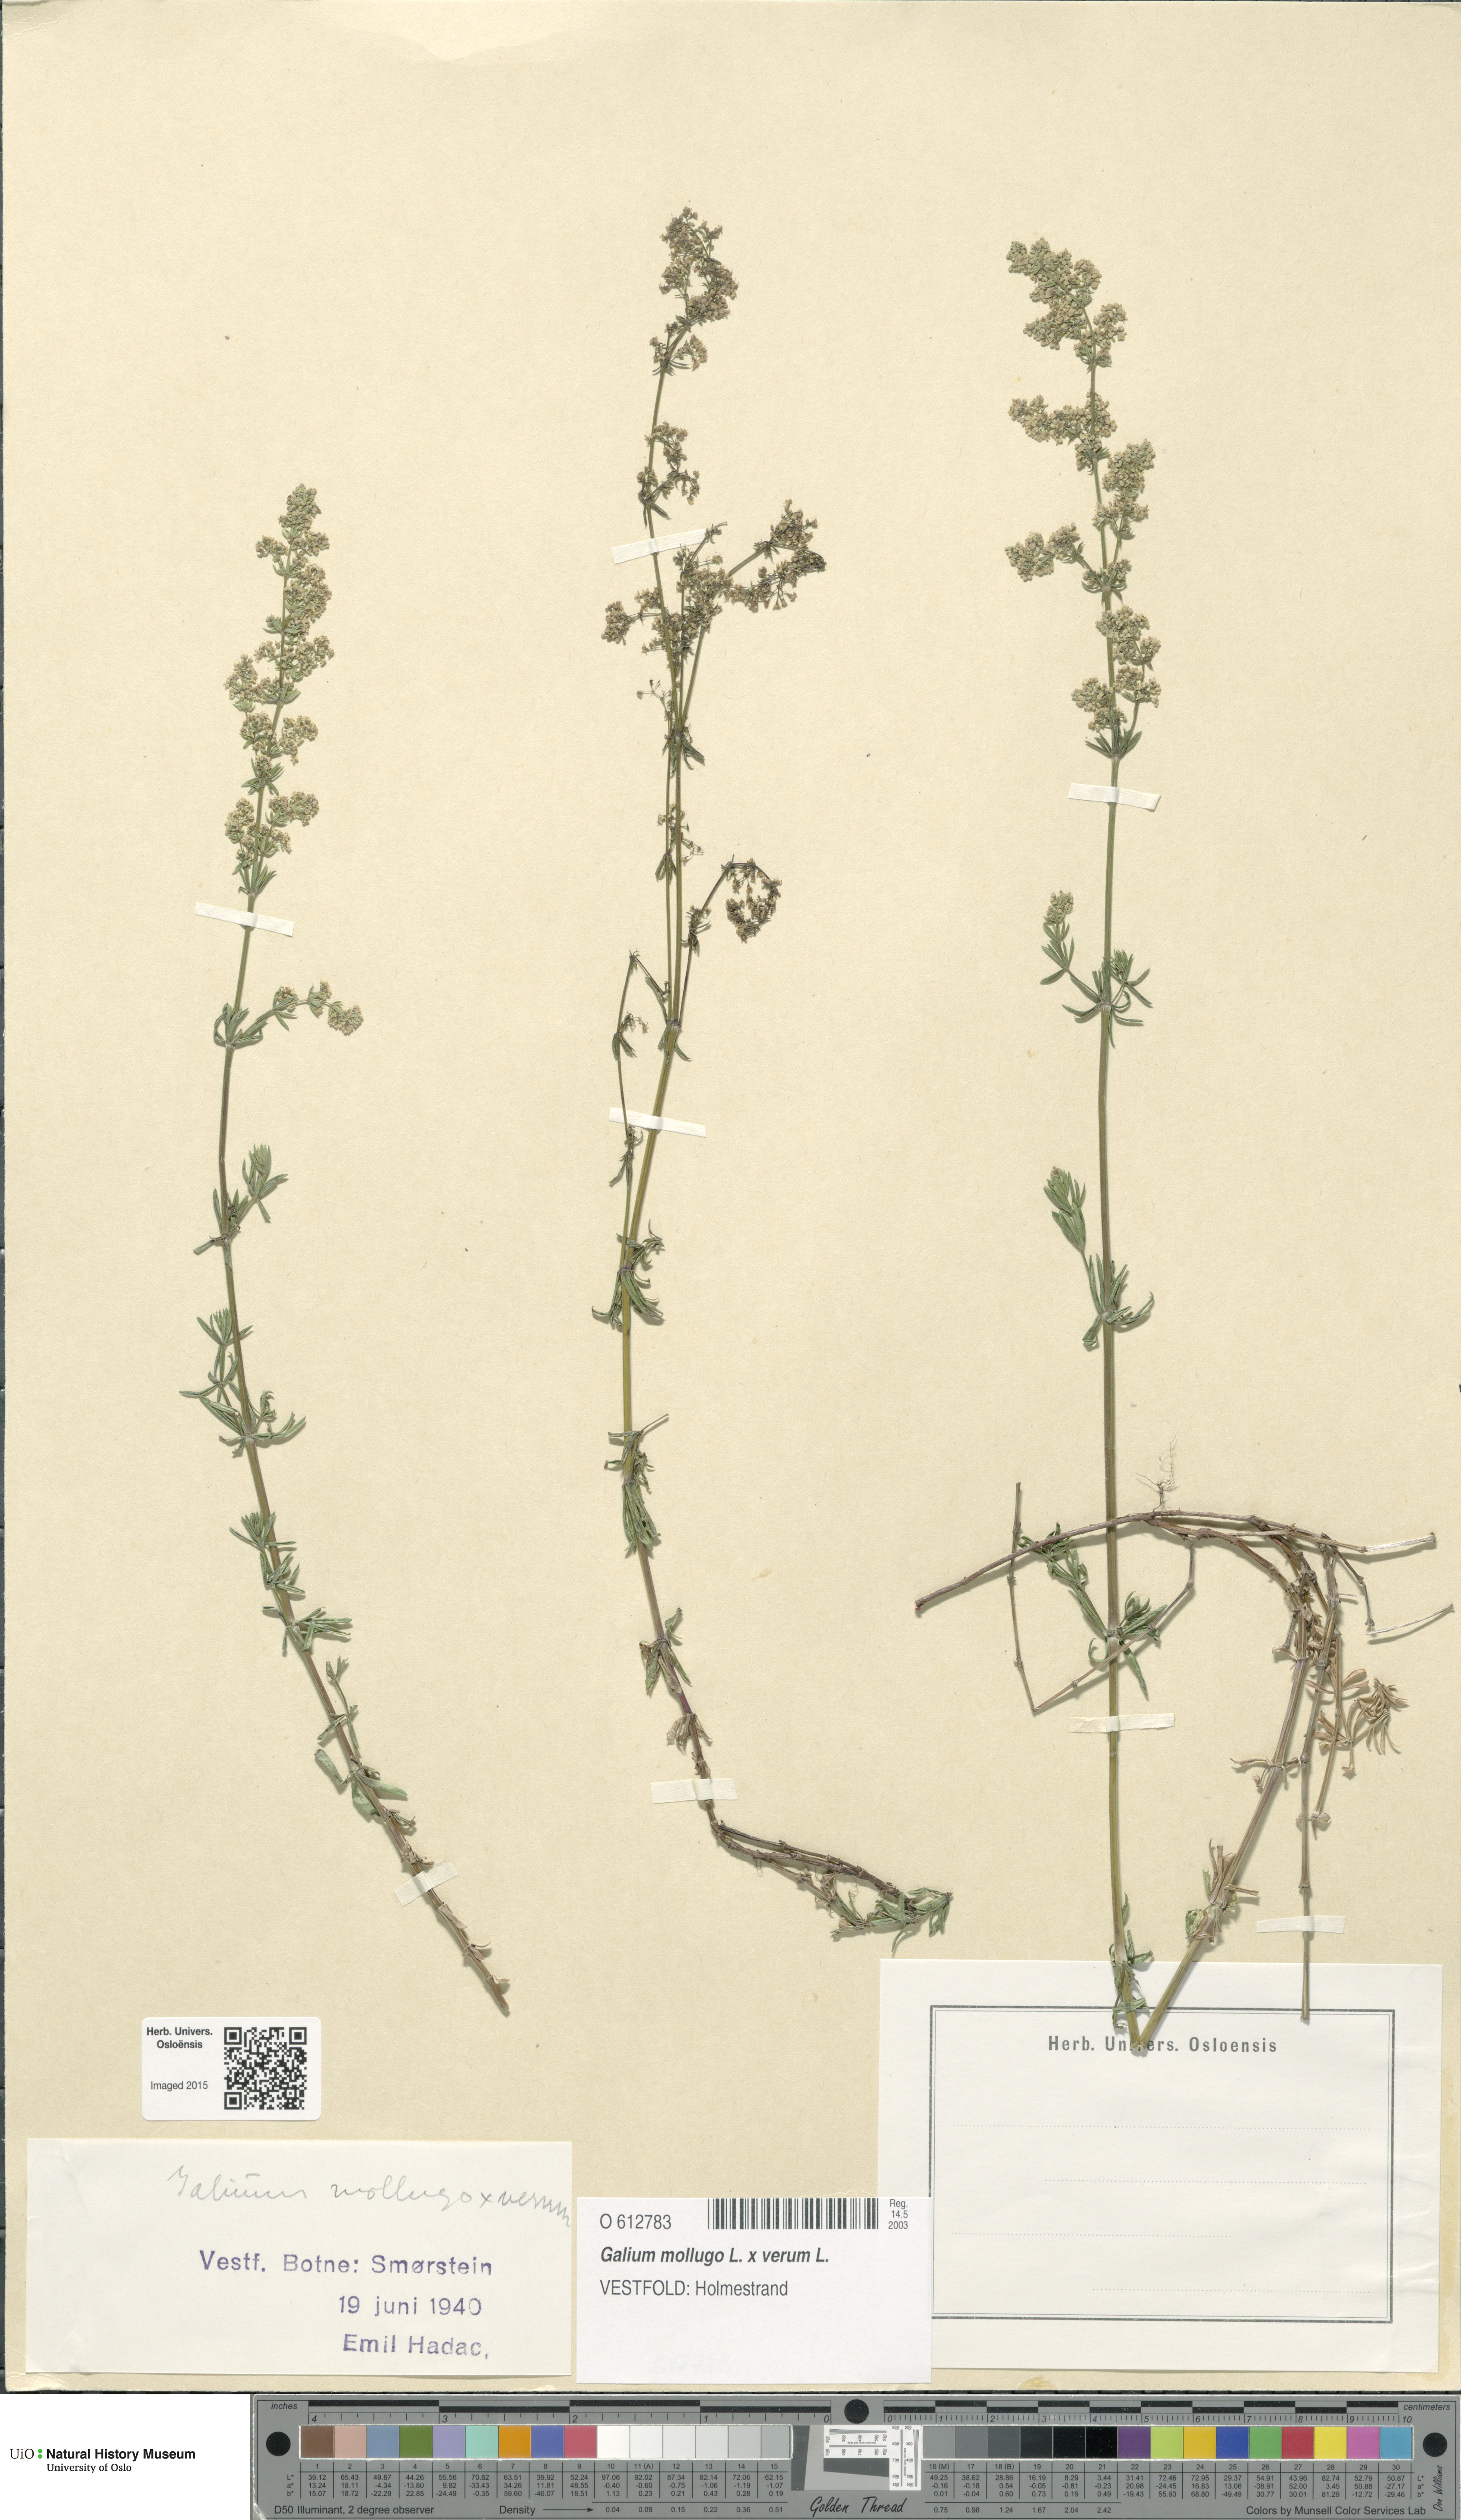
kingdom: Plantae
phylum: Tracheophyta
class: Magnoliopsida
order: Gentianales
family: Rubiaceae
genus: Galium
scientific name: Galium
